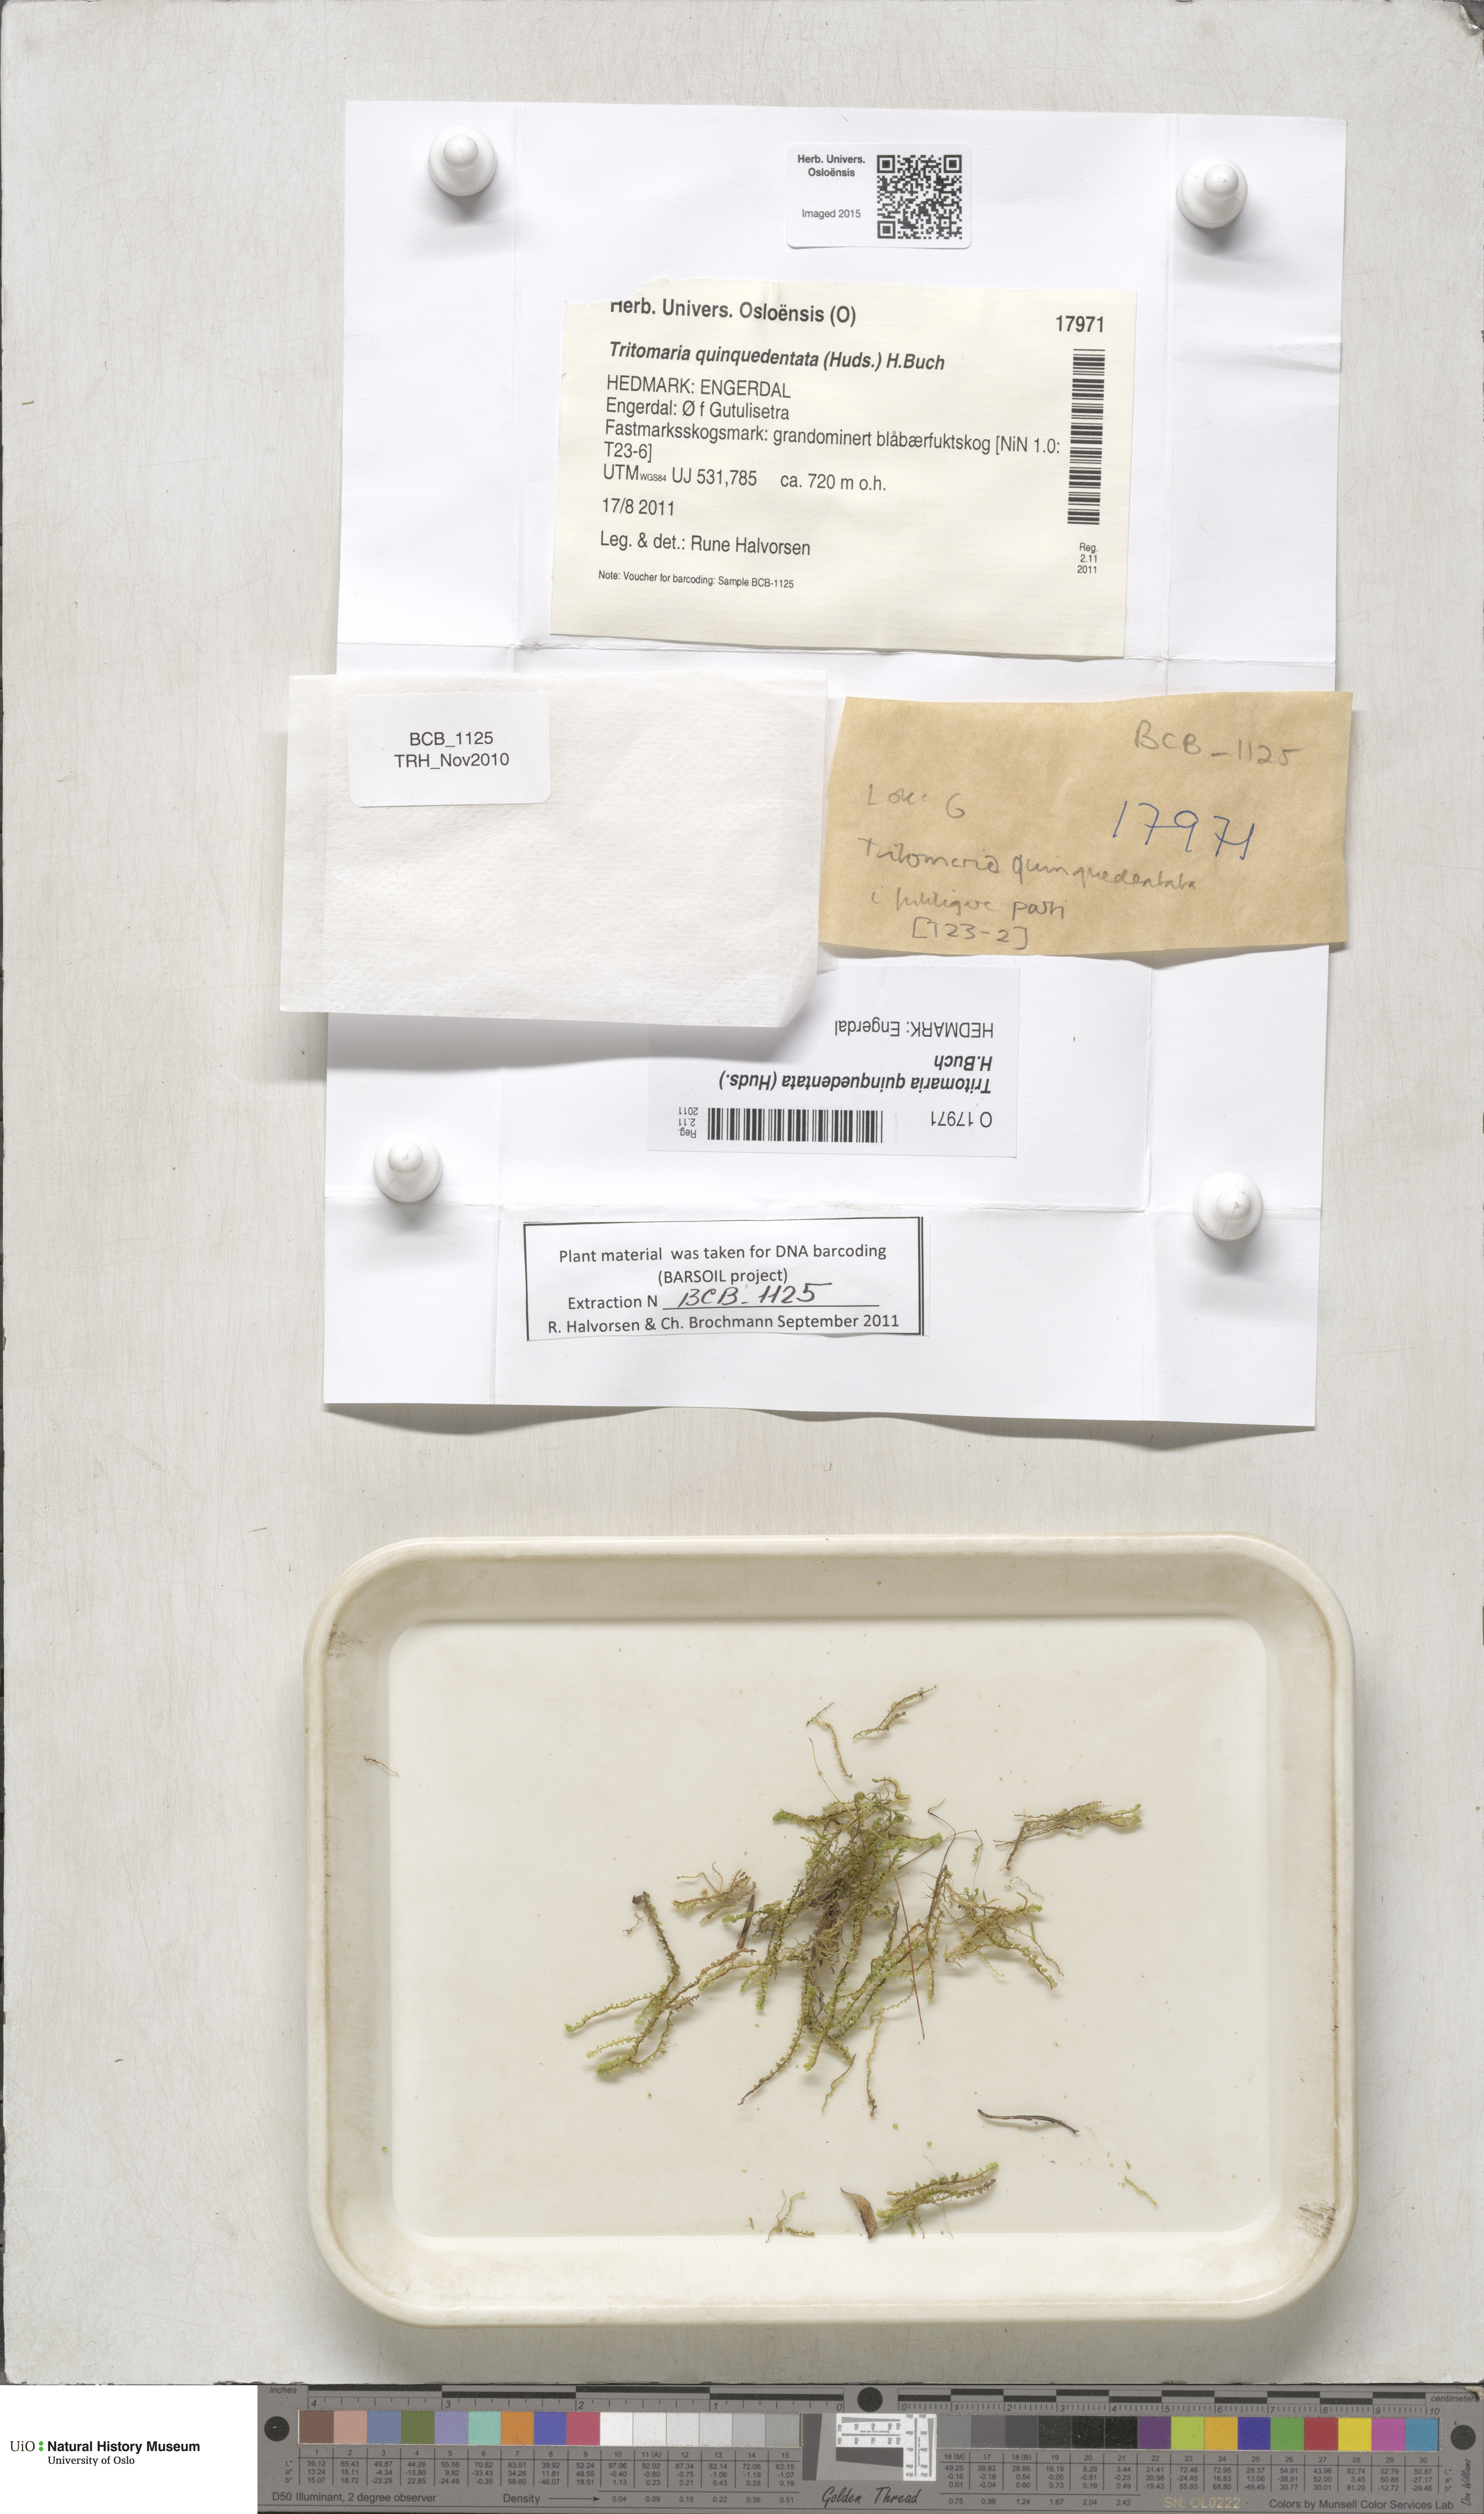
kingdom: Plantae
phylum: Marchantiophyta
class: Jungermanniopsida
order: Jungermanniales
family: Lophoziaceae
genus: Trilophozia
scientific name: Trilophozia quinquedentata
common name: Large notchwort
